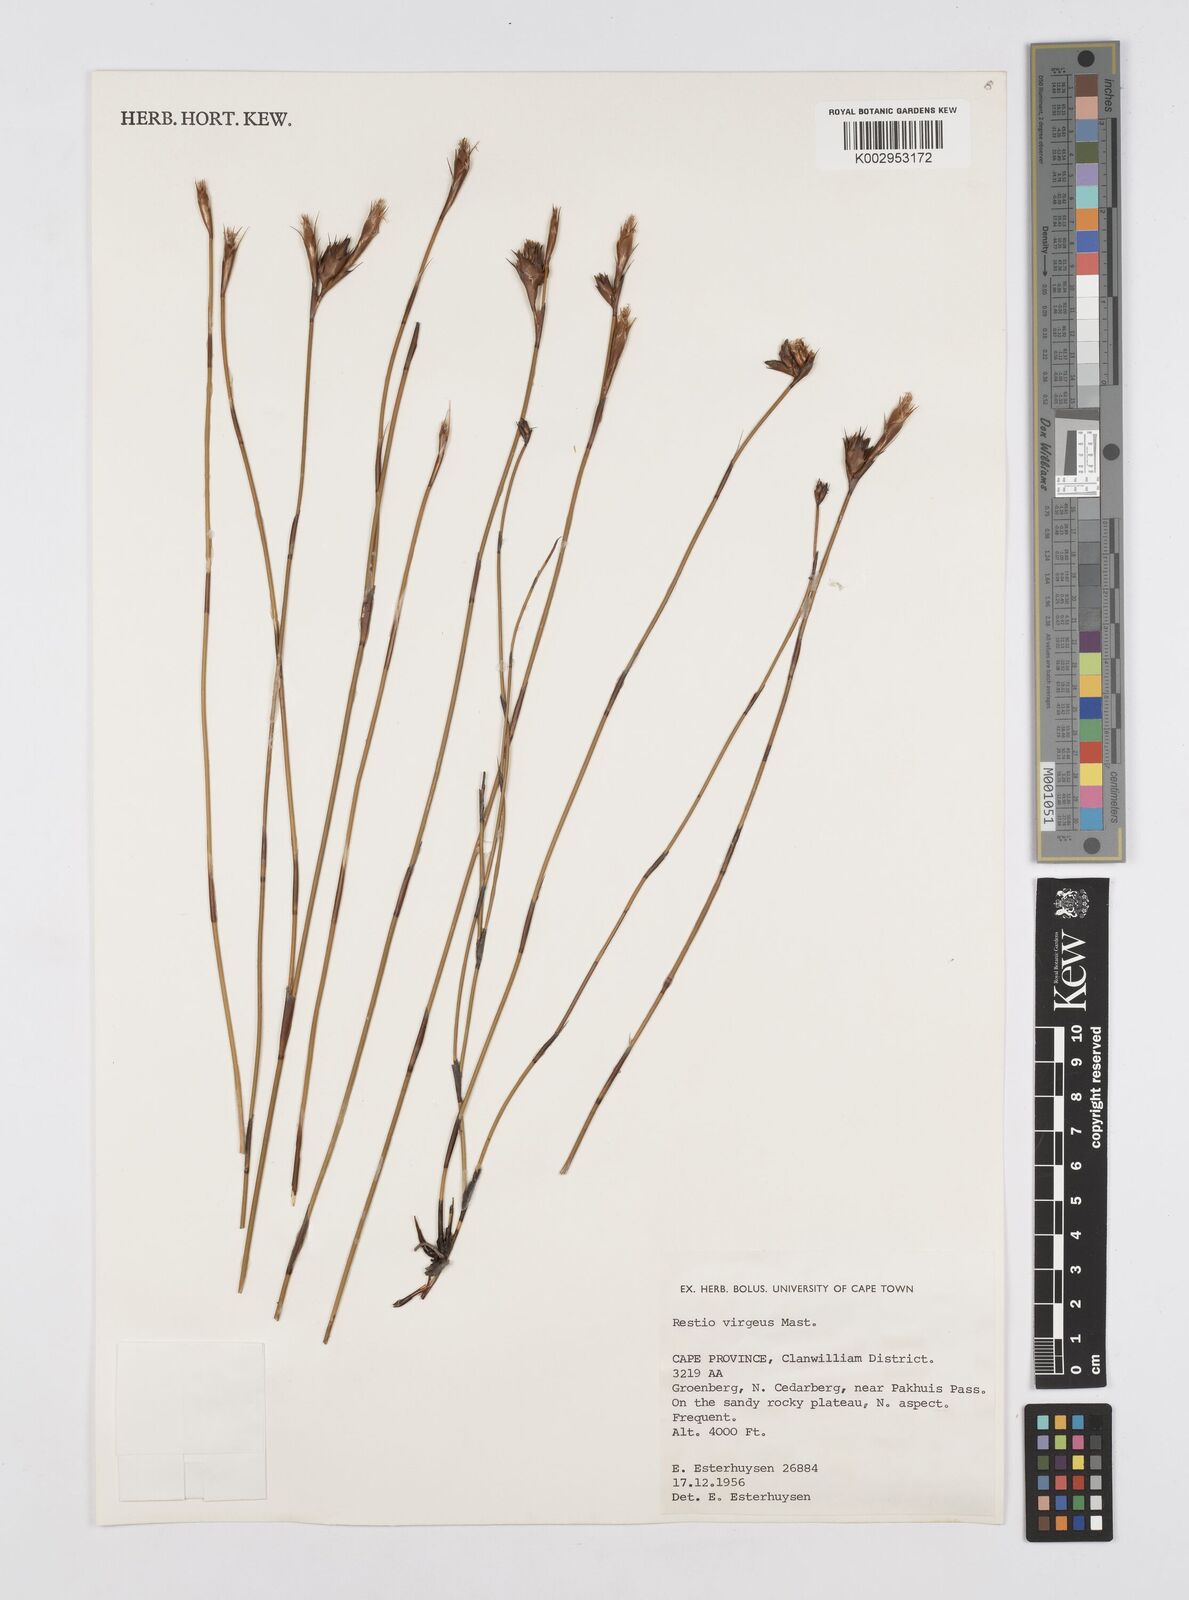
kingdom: Plantae
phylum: Tracheophyta
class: Liliopsida
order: Poales
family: Restionaceae
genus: Restio
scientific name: Restio virgeus
